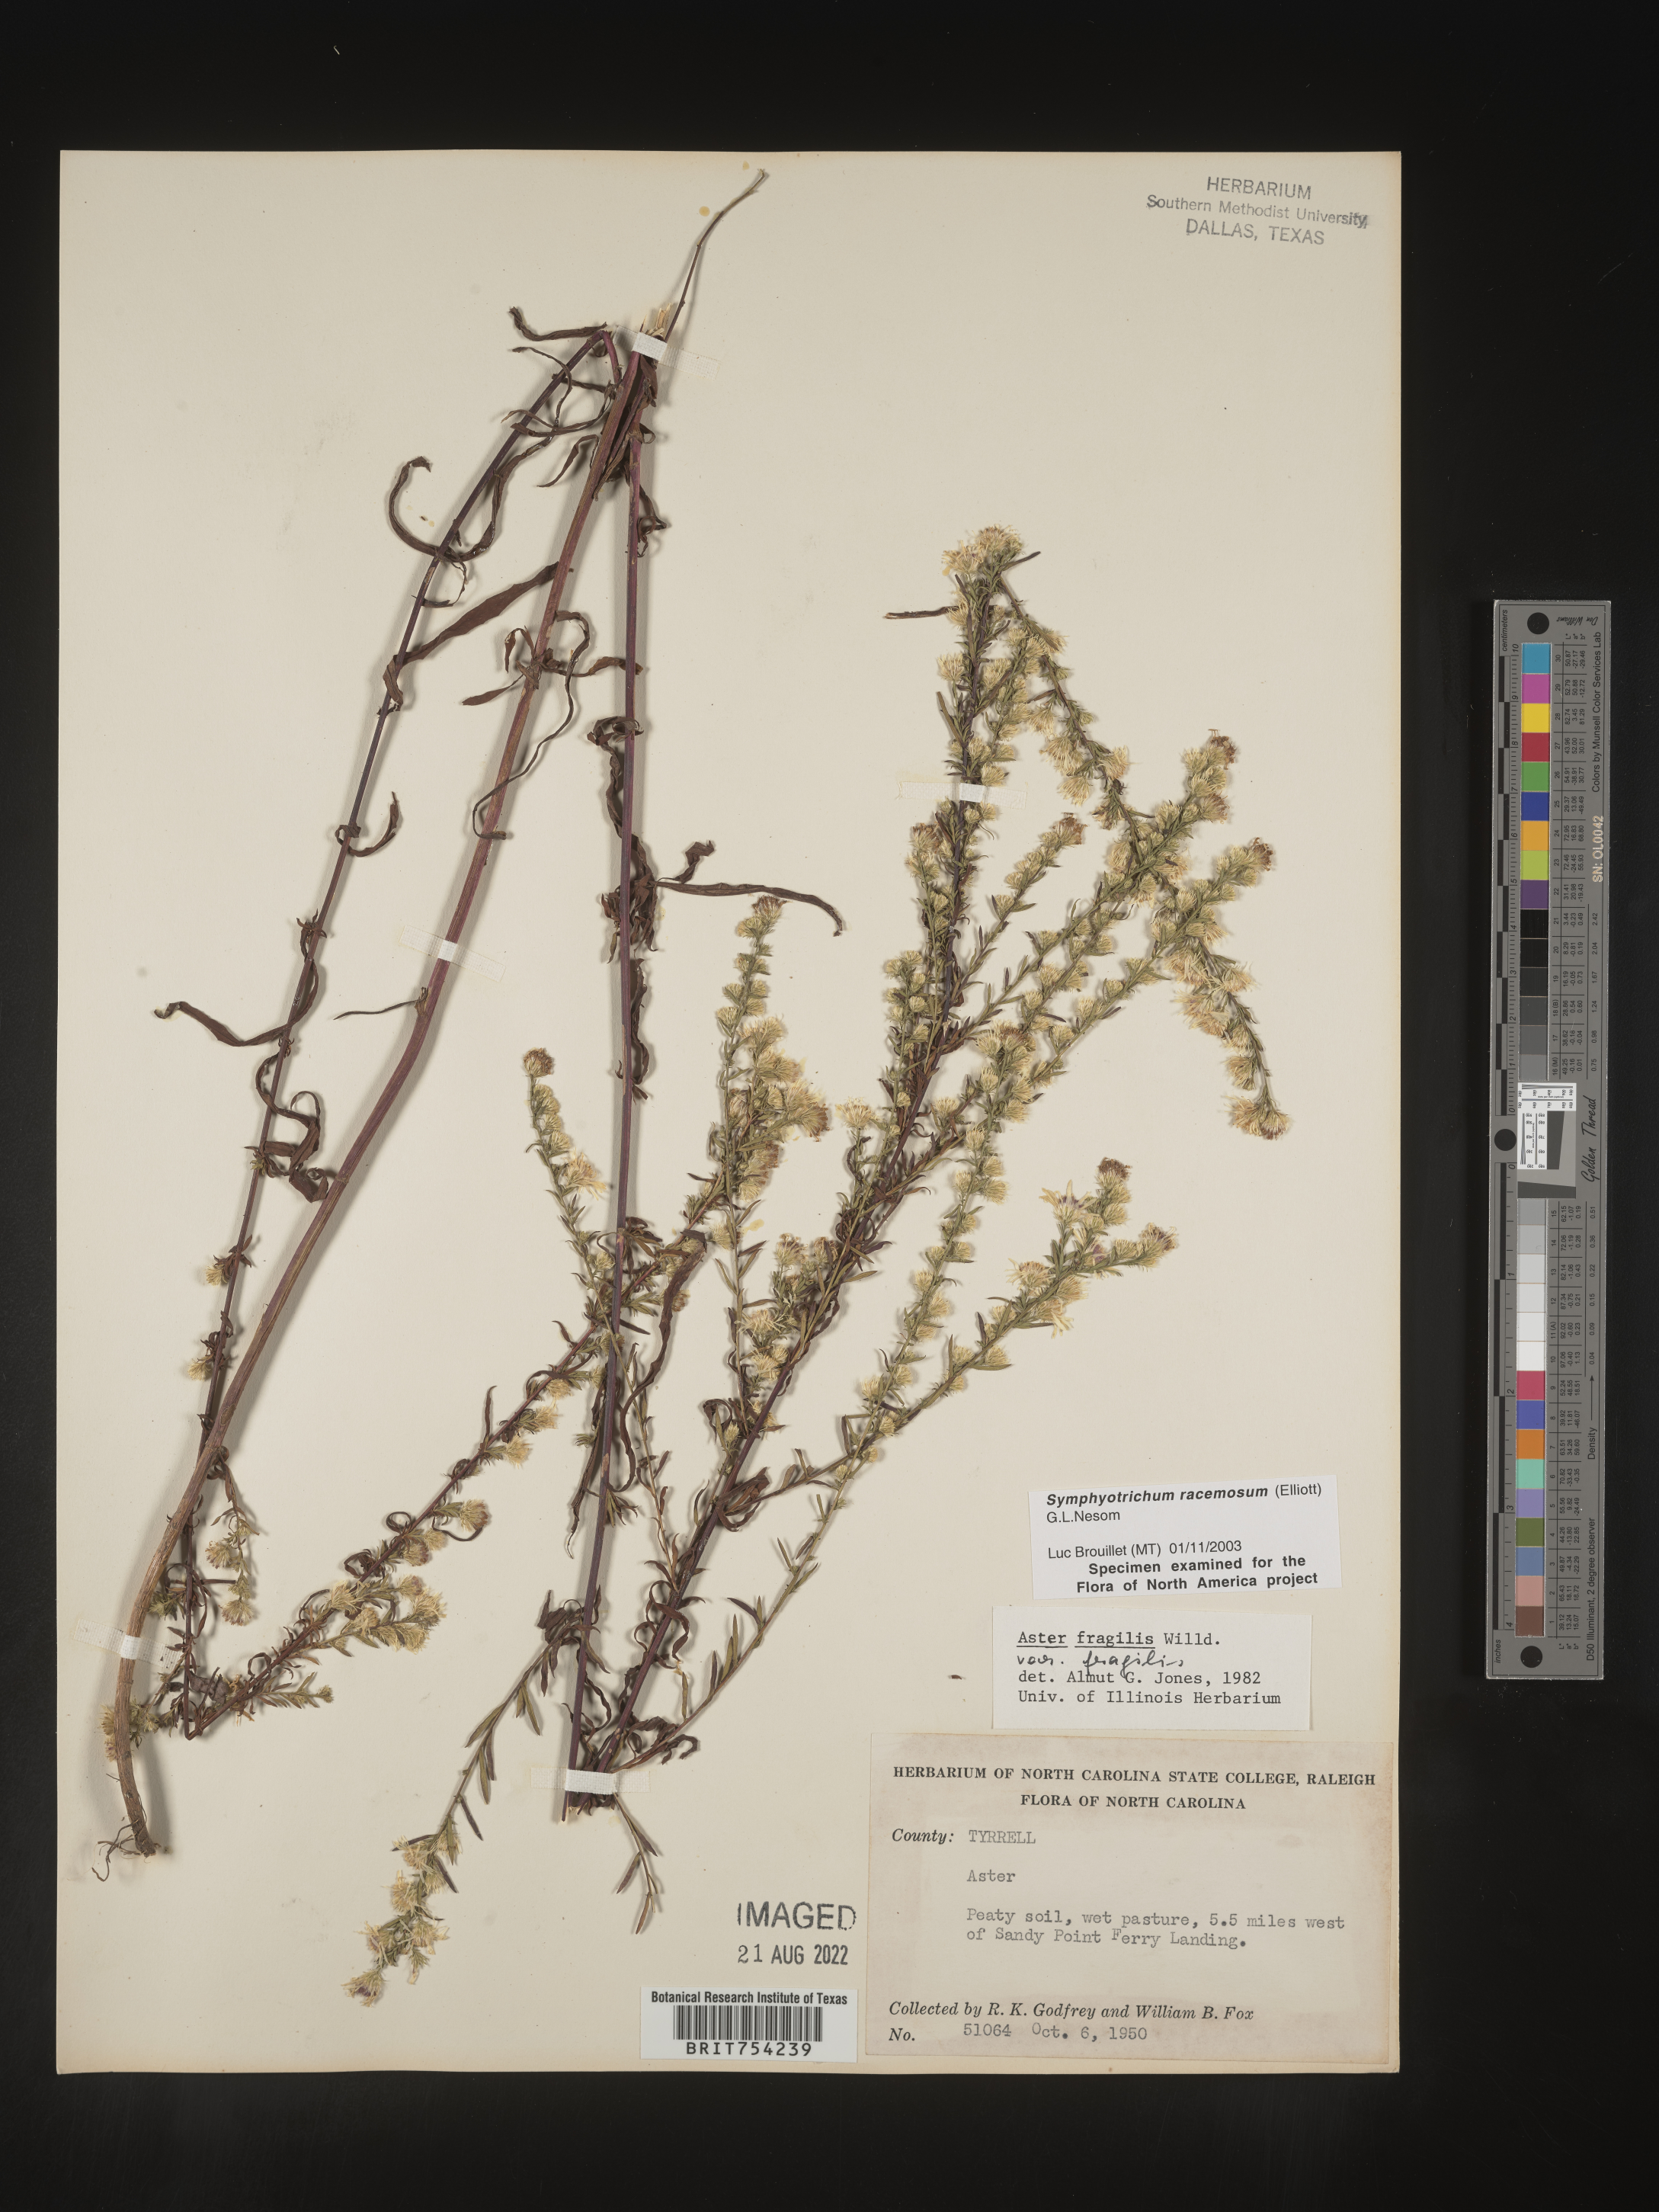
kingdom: Plantae
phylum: Tracheophyta
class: Magnoliopsida
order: Asterales
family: Asteraceae
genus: Symphyotrichum
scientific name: Symphyotrichum racemosum
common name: Small white aster
